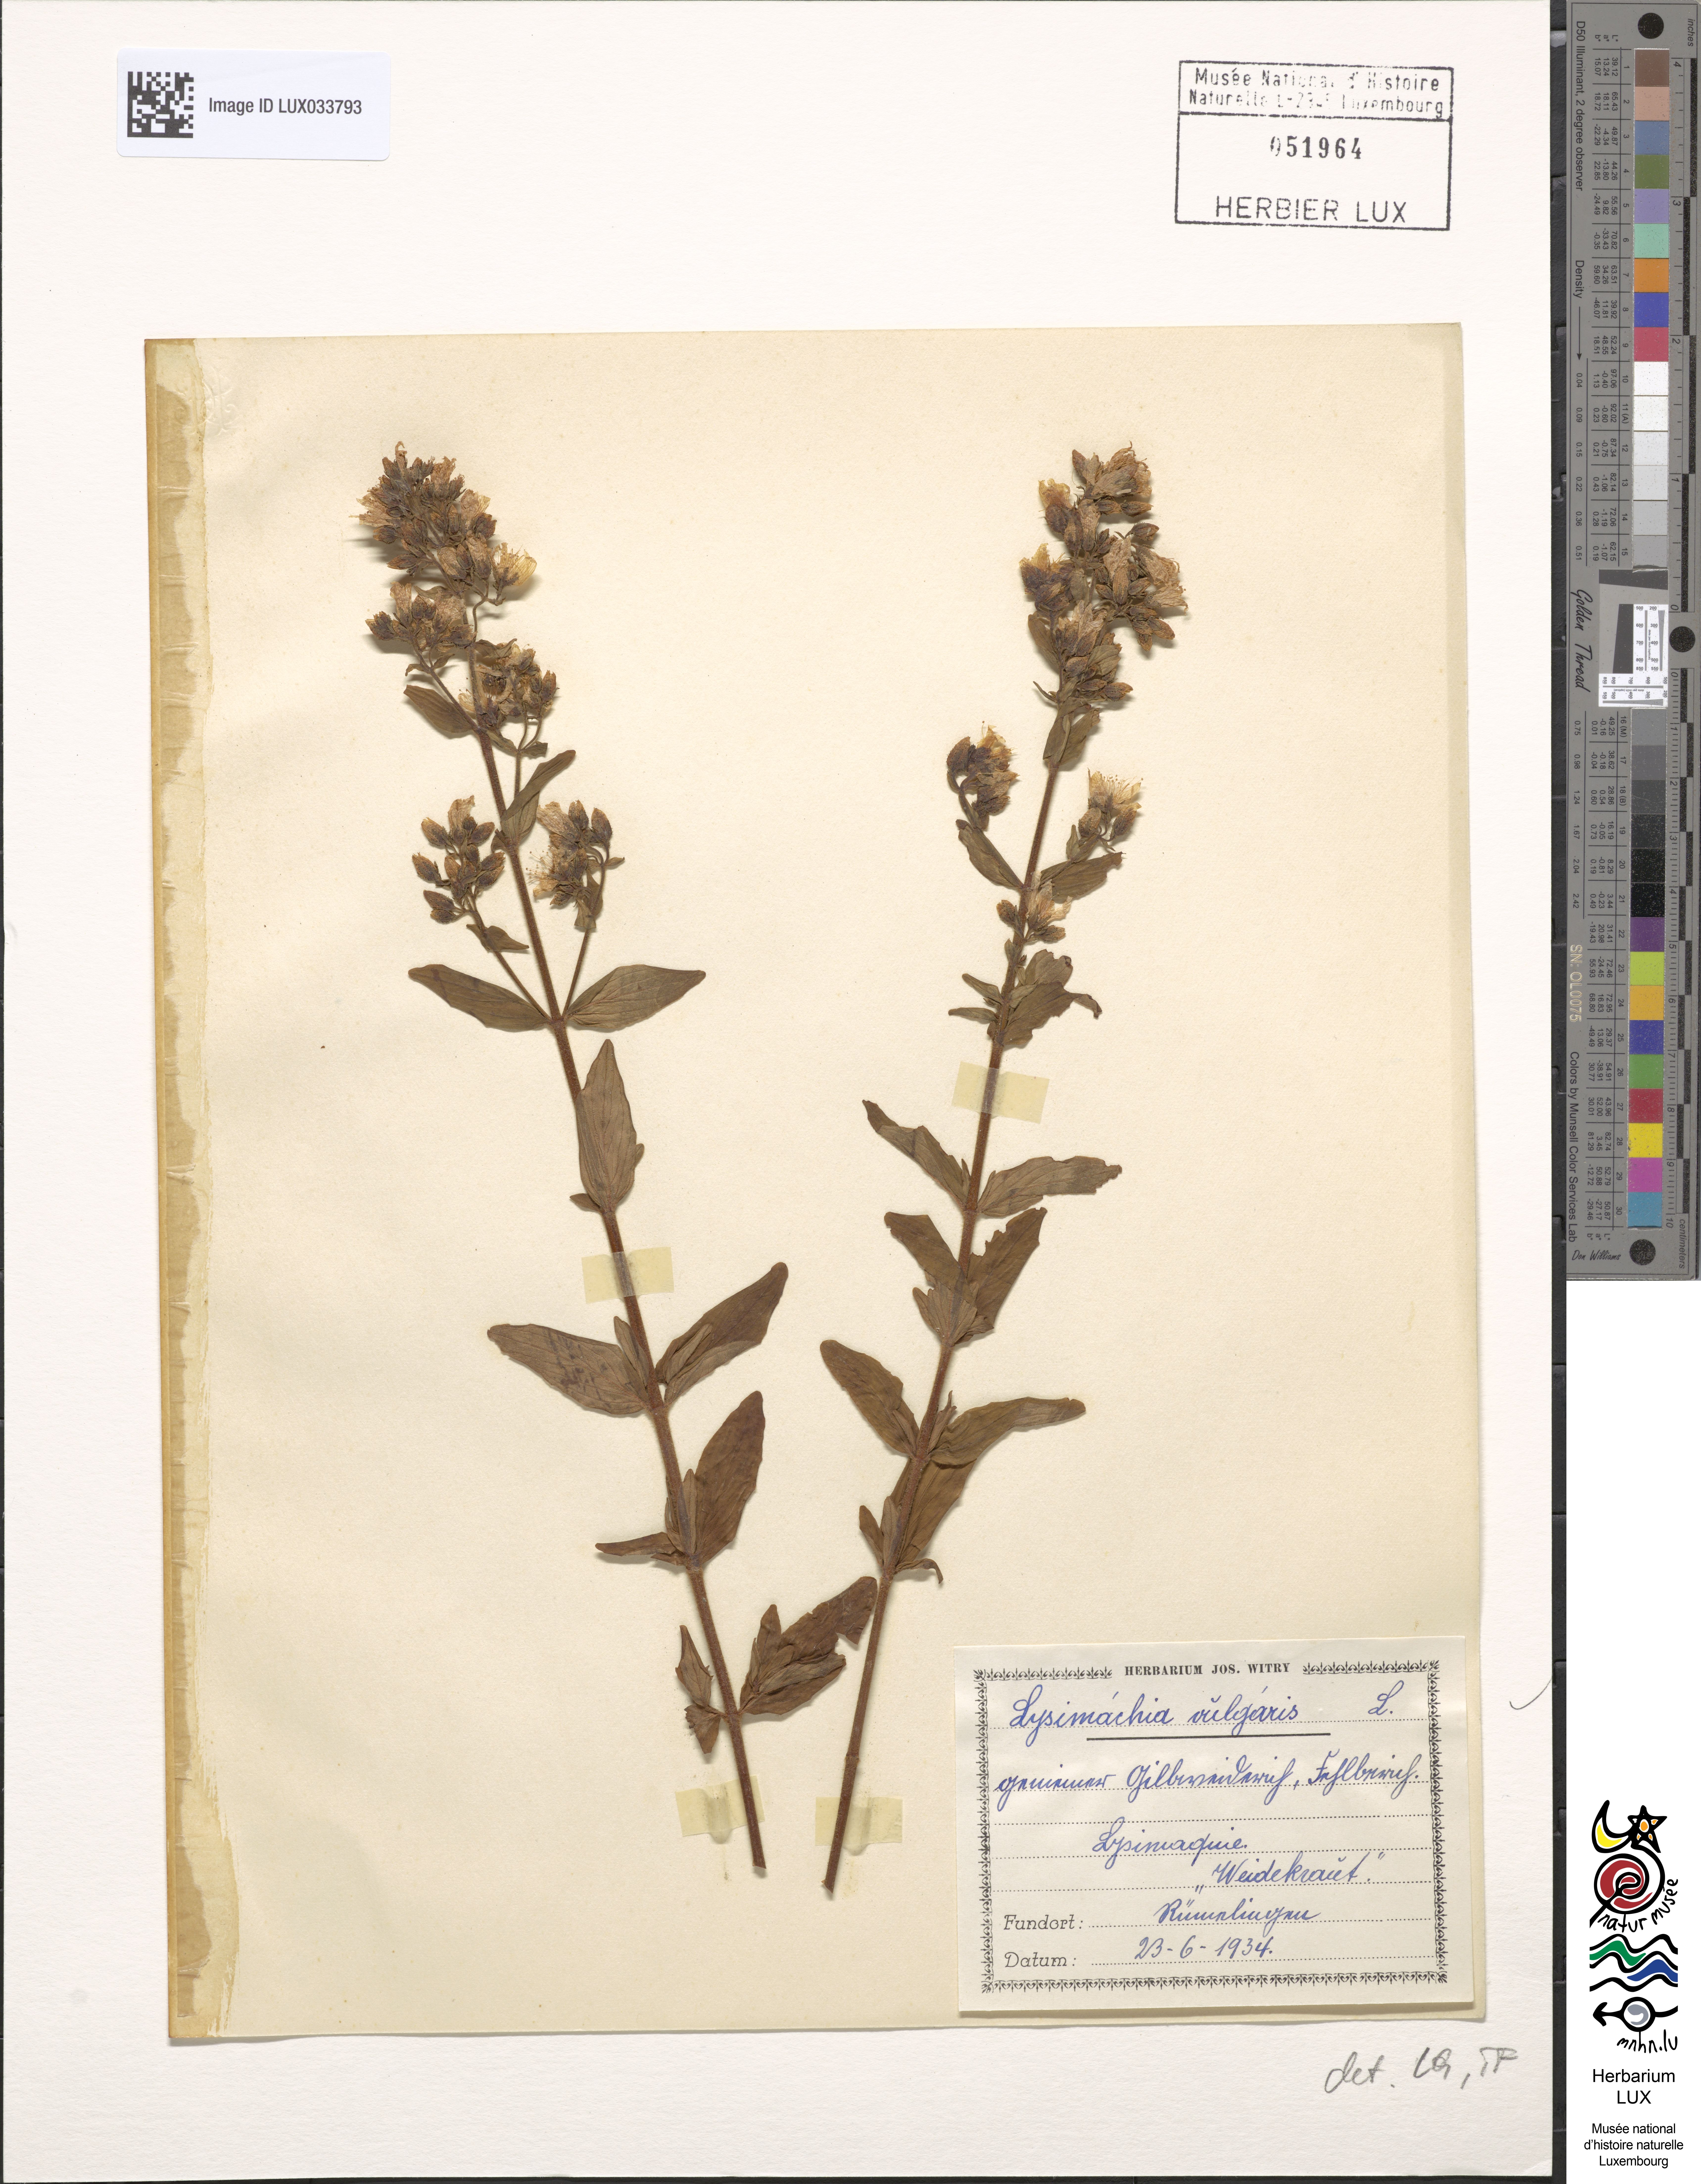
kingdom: Plantae
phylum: Tracheophyta
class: Magnoliopsida
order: Ericales
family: Primulaceae
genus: Lysimachia
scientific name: Lysimachia vulgaris
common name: Yellow loosestrife
